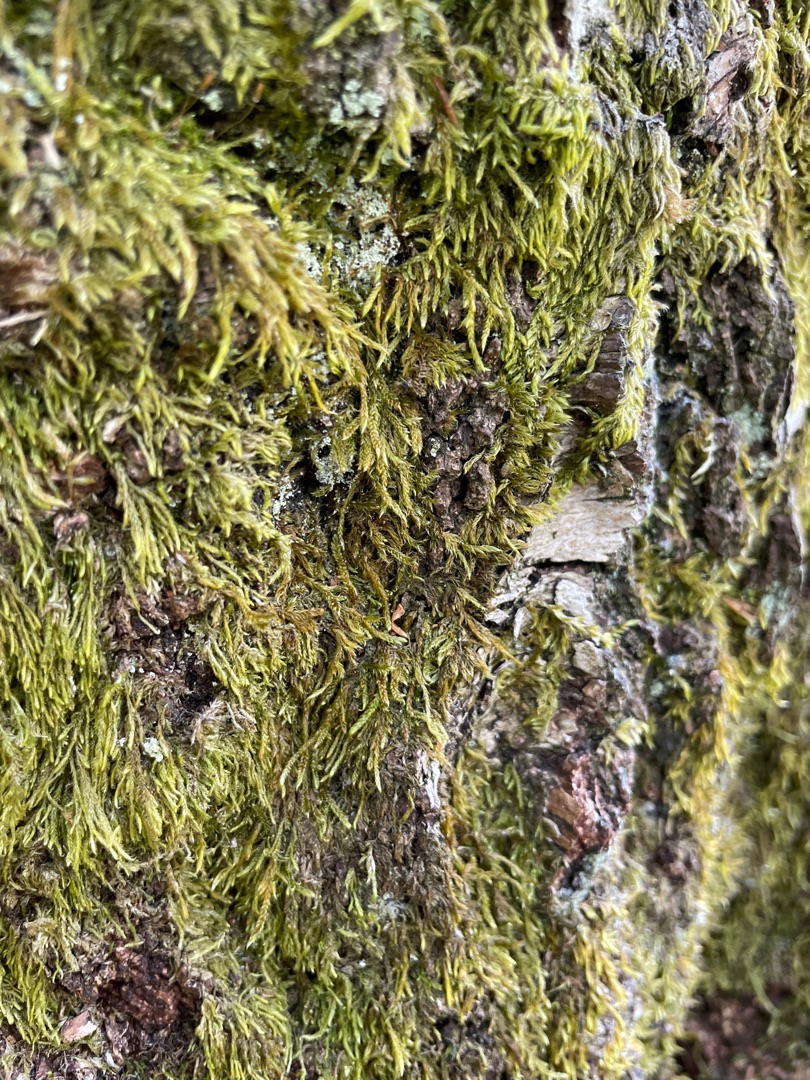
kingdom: Plantae
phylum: Bryophyta
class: Bryopsida
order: Hypnales
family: Hypnaceae
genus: Hypnum
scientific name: Hypnum
